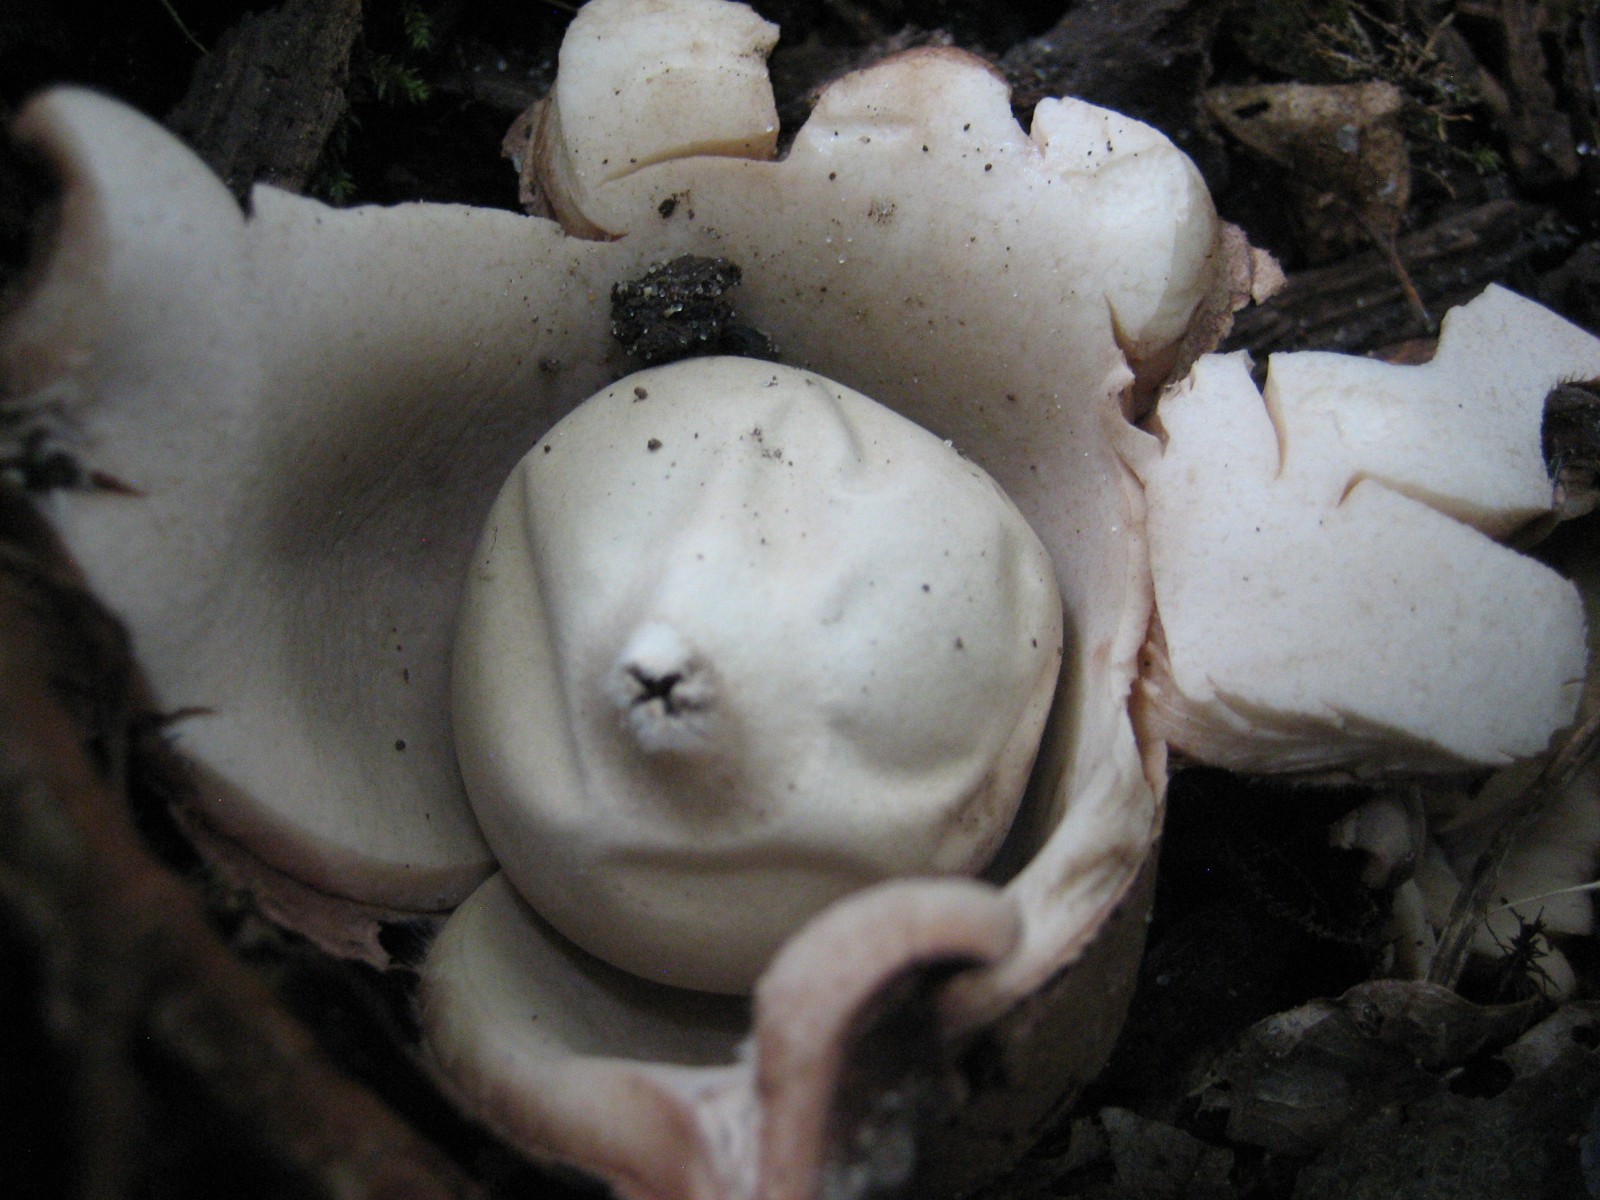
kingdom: Fungi
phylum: Basidiomycota
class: Agaricomycetes
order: Geastrales
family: Geastraceae
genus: Geastrum
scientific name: Geastrum michelianum
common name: kødet stjernebold
